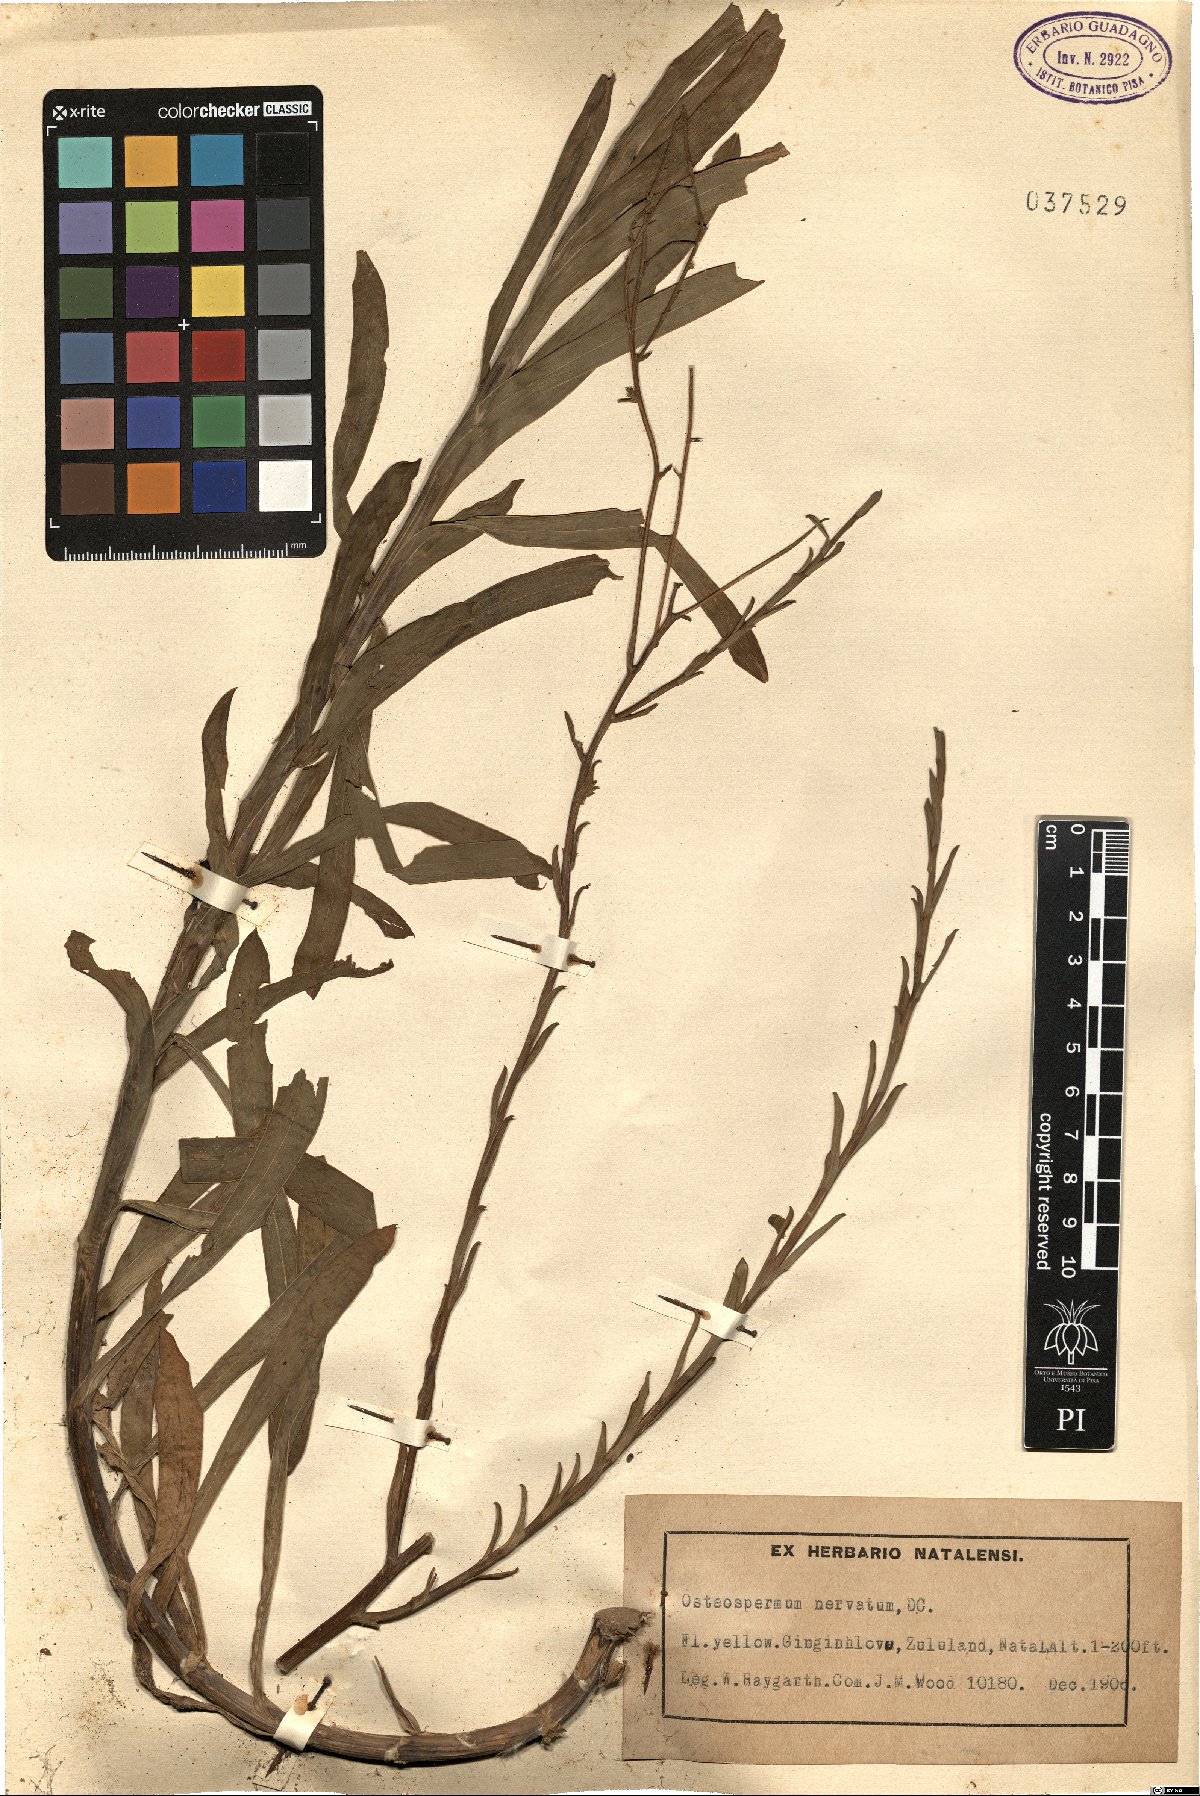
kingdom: Plantae
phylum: Tracheophyta
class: Magnoliopsida
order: Asterales
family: Asteraceae
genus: Osteospermum
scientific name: Osteospermum imbricatum
